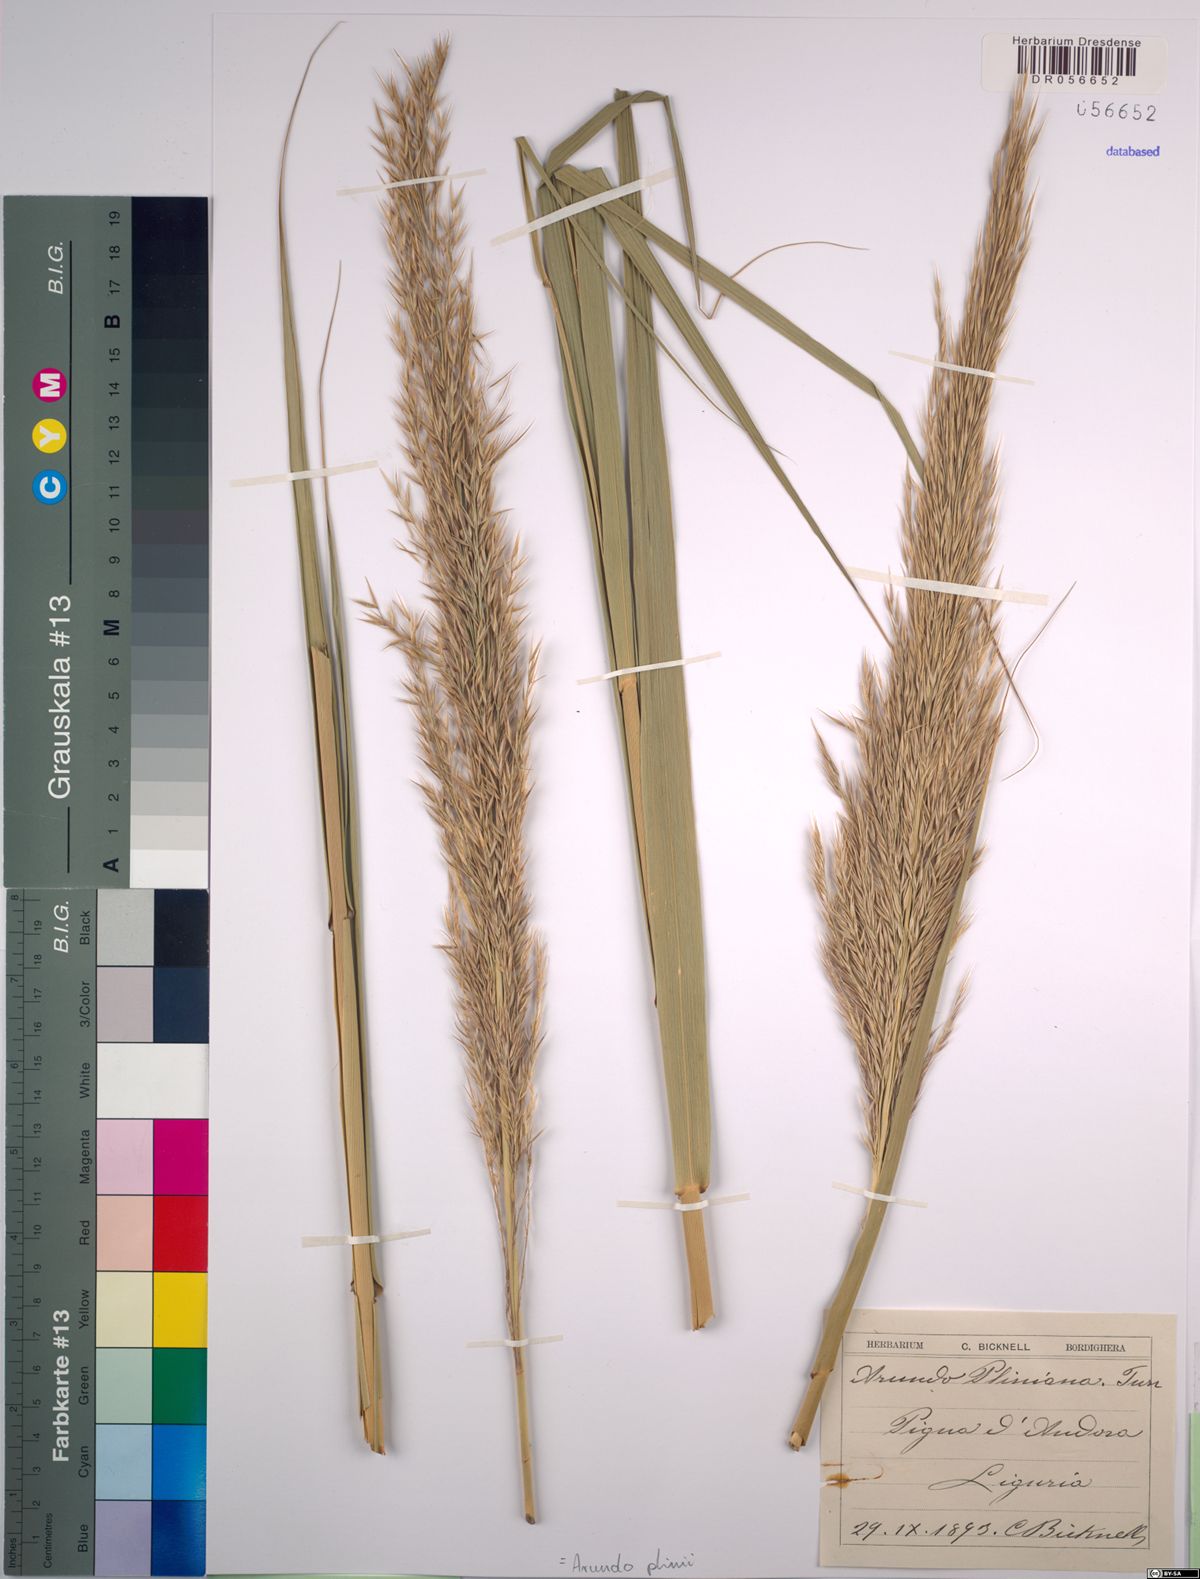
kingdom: Plantae
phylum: Tracheophyta
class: Liliopsida
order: Poales
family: Poaceae
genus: Arundo
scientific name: Arundo plinii
